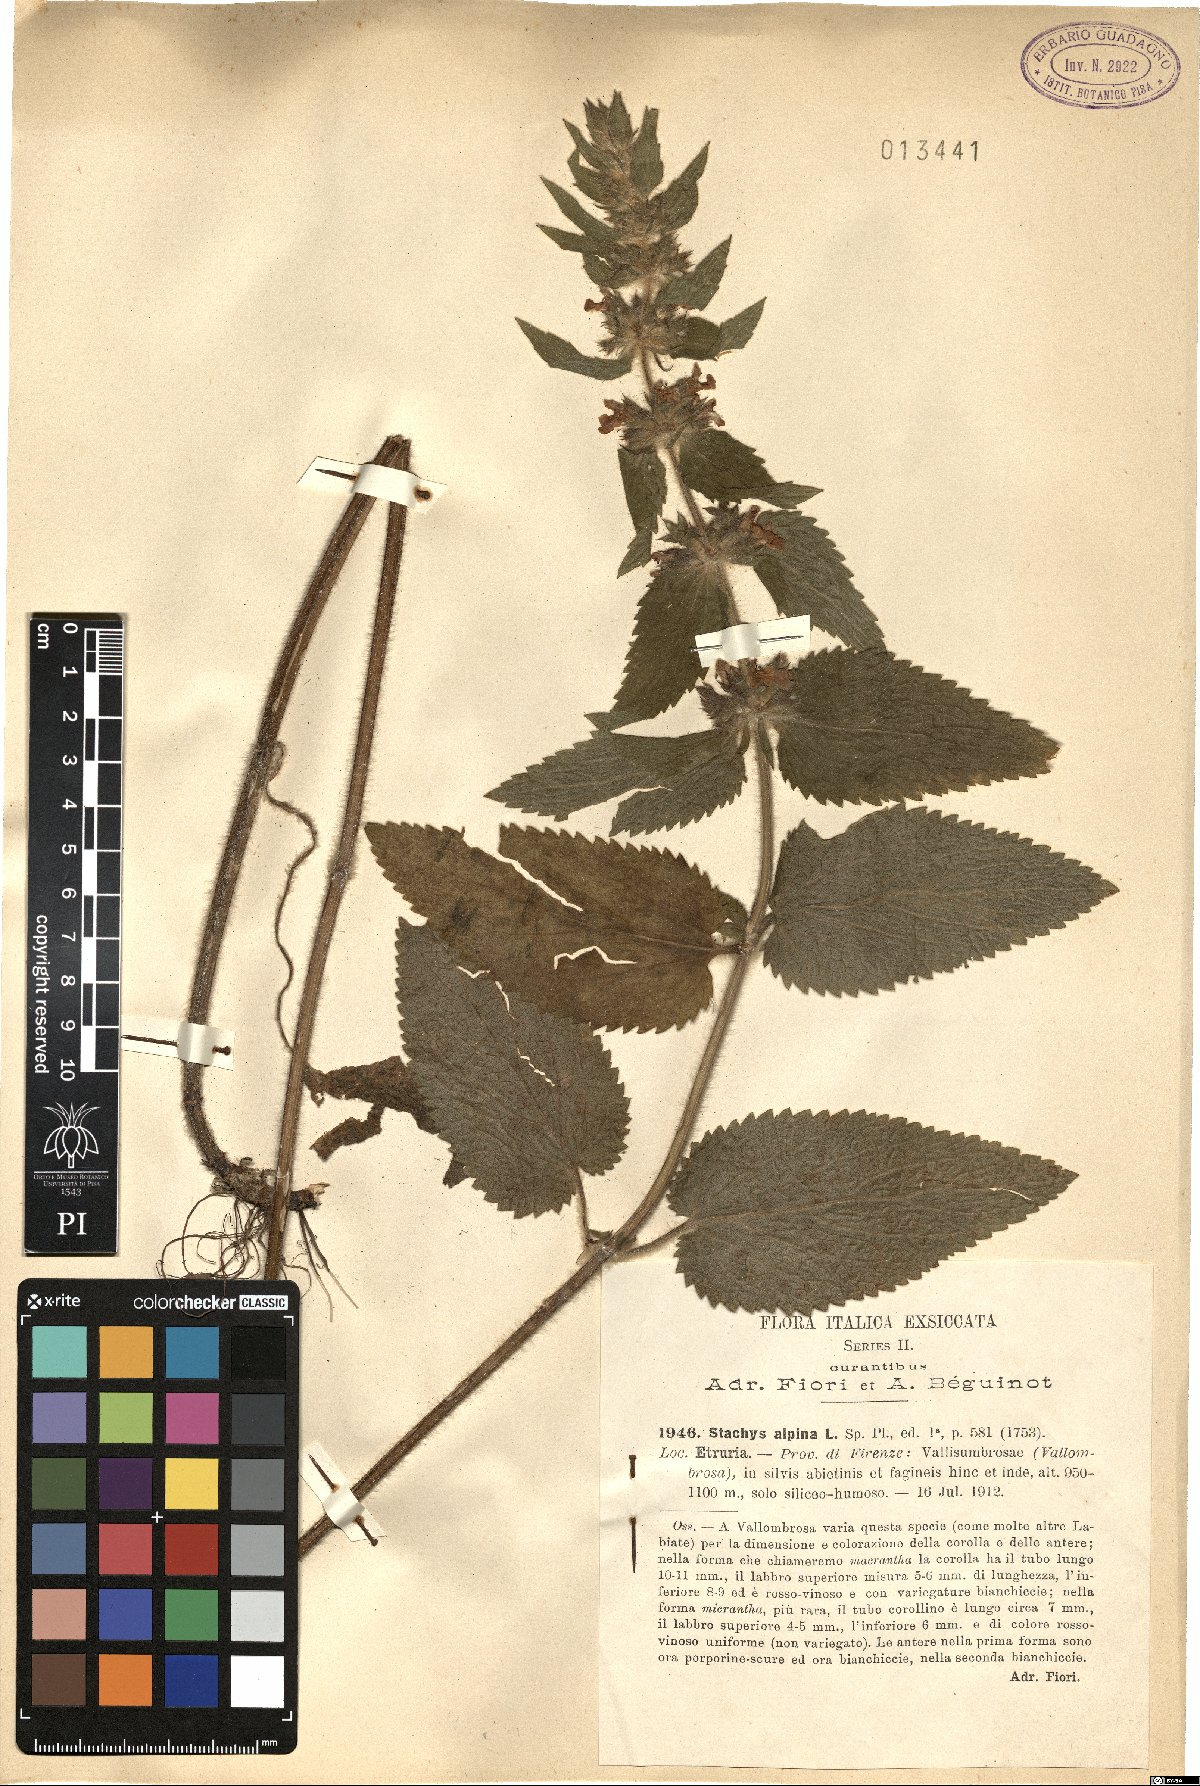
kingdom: Plantae
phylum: Tracheophyta
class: Magnoliopsida
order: Lamiales
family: Lamiaceae
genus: Stachys
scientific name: Stachys alpina
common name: Limestone woundwort
